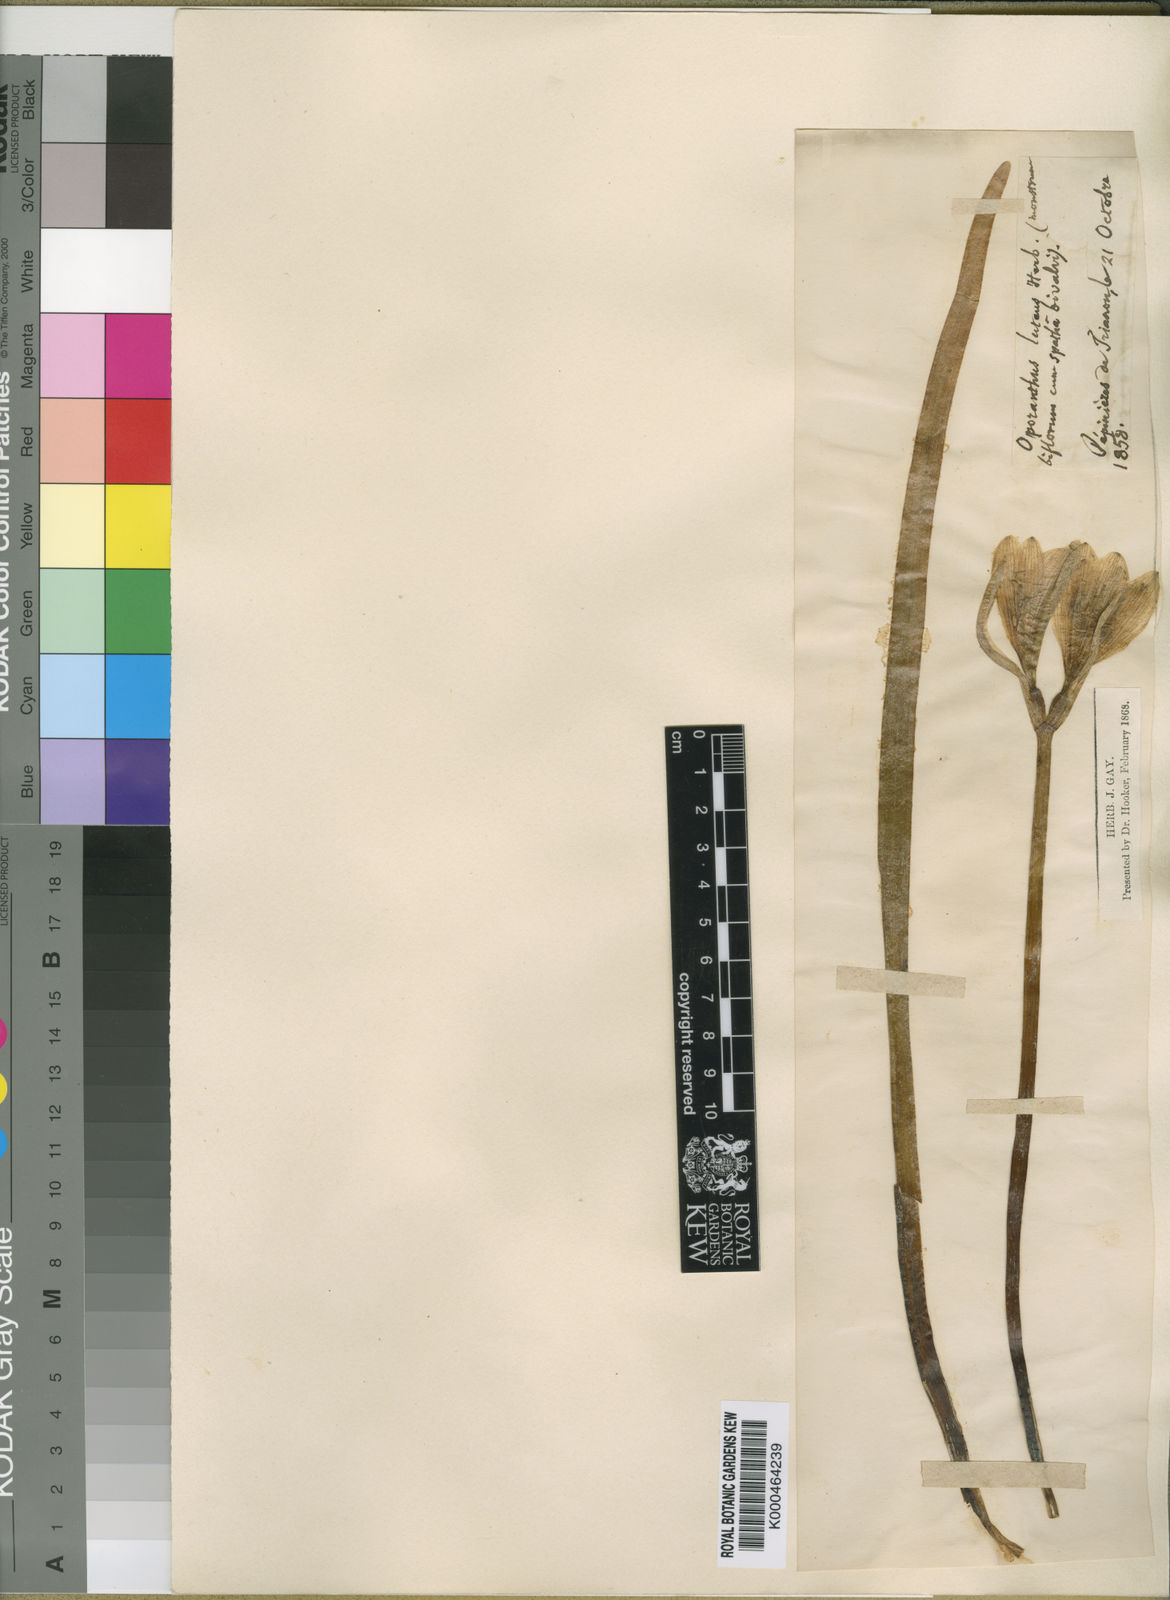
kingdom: Plantae
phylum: Tracheophyta
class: Liliopsida
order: Asparagales
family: Amaryllidaceae
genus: Sternbergia
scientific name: Sternbergia
